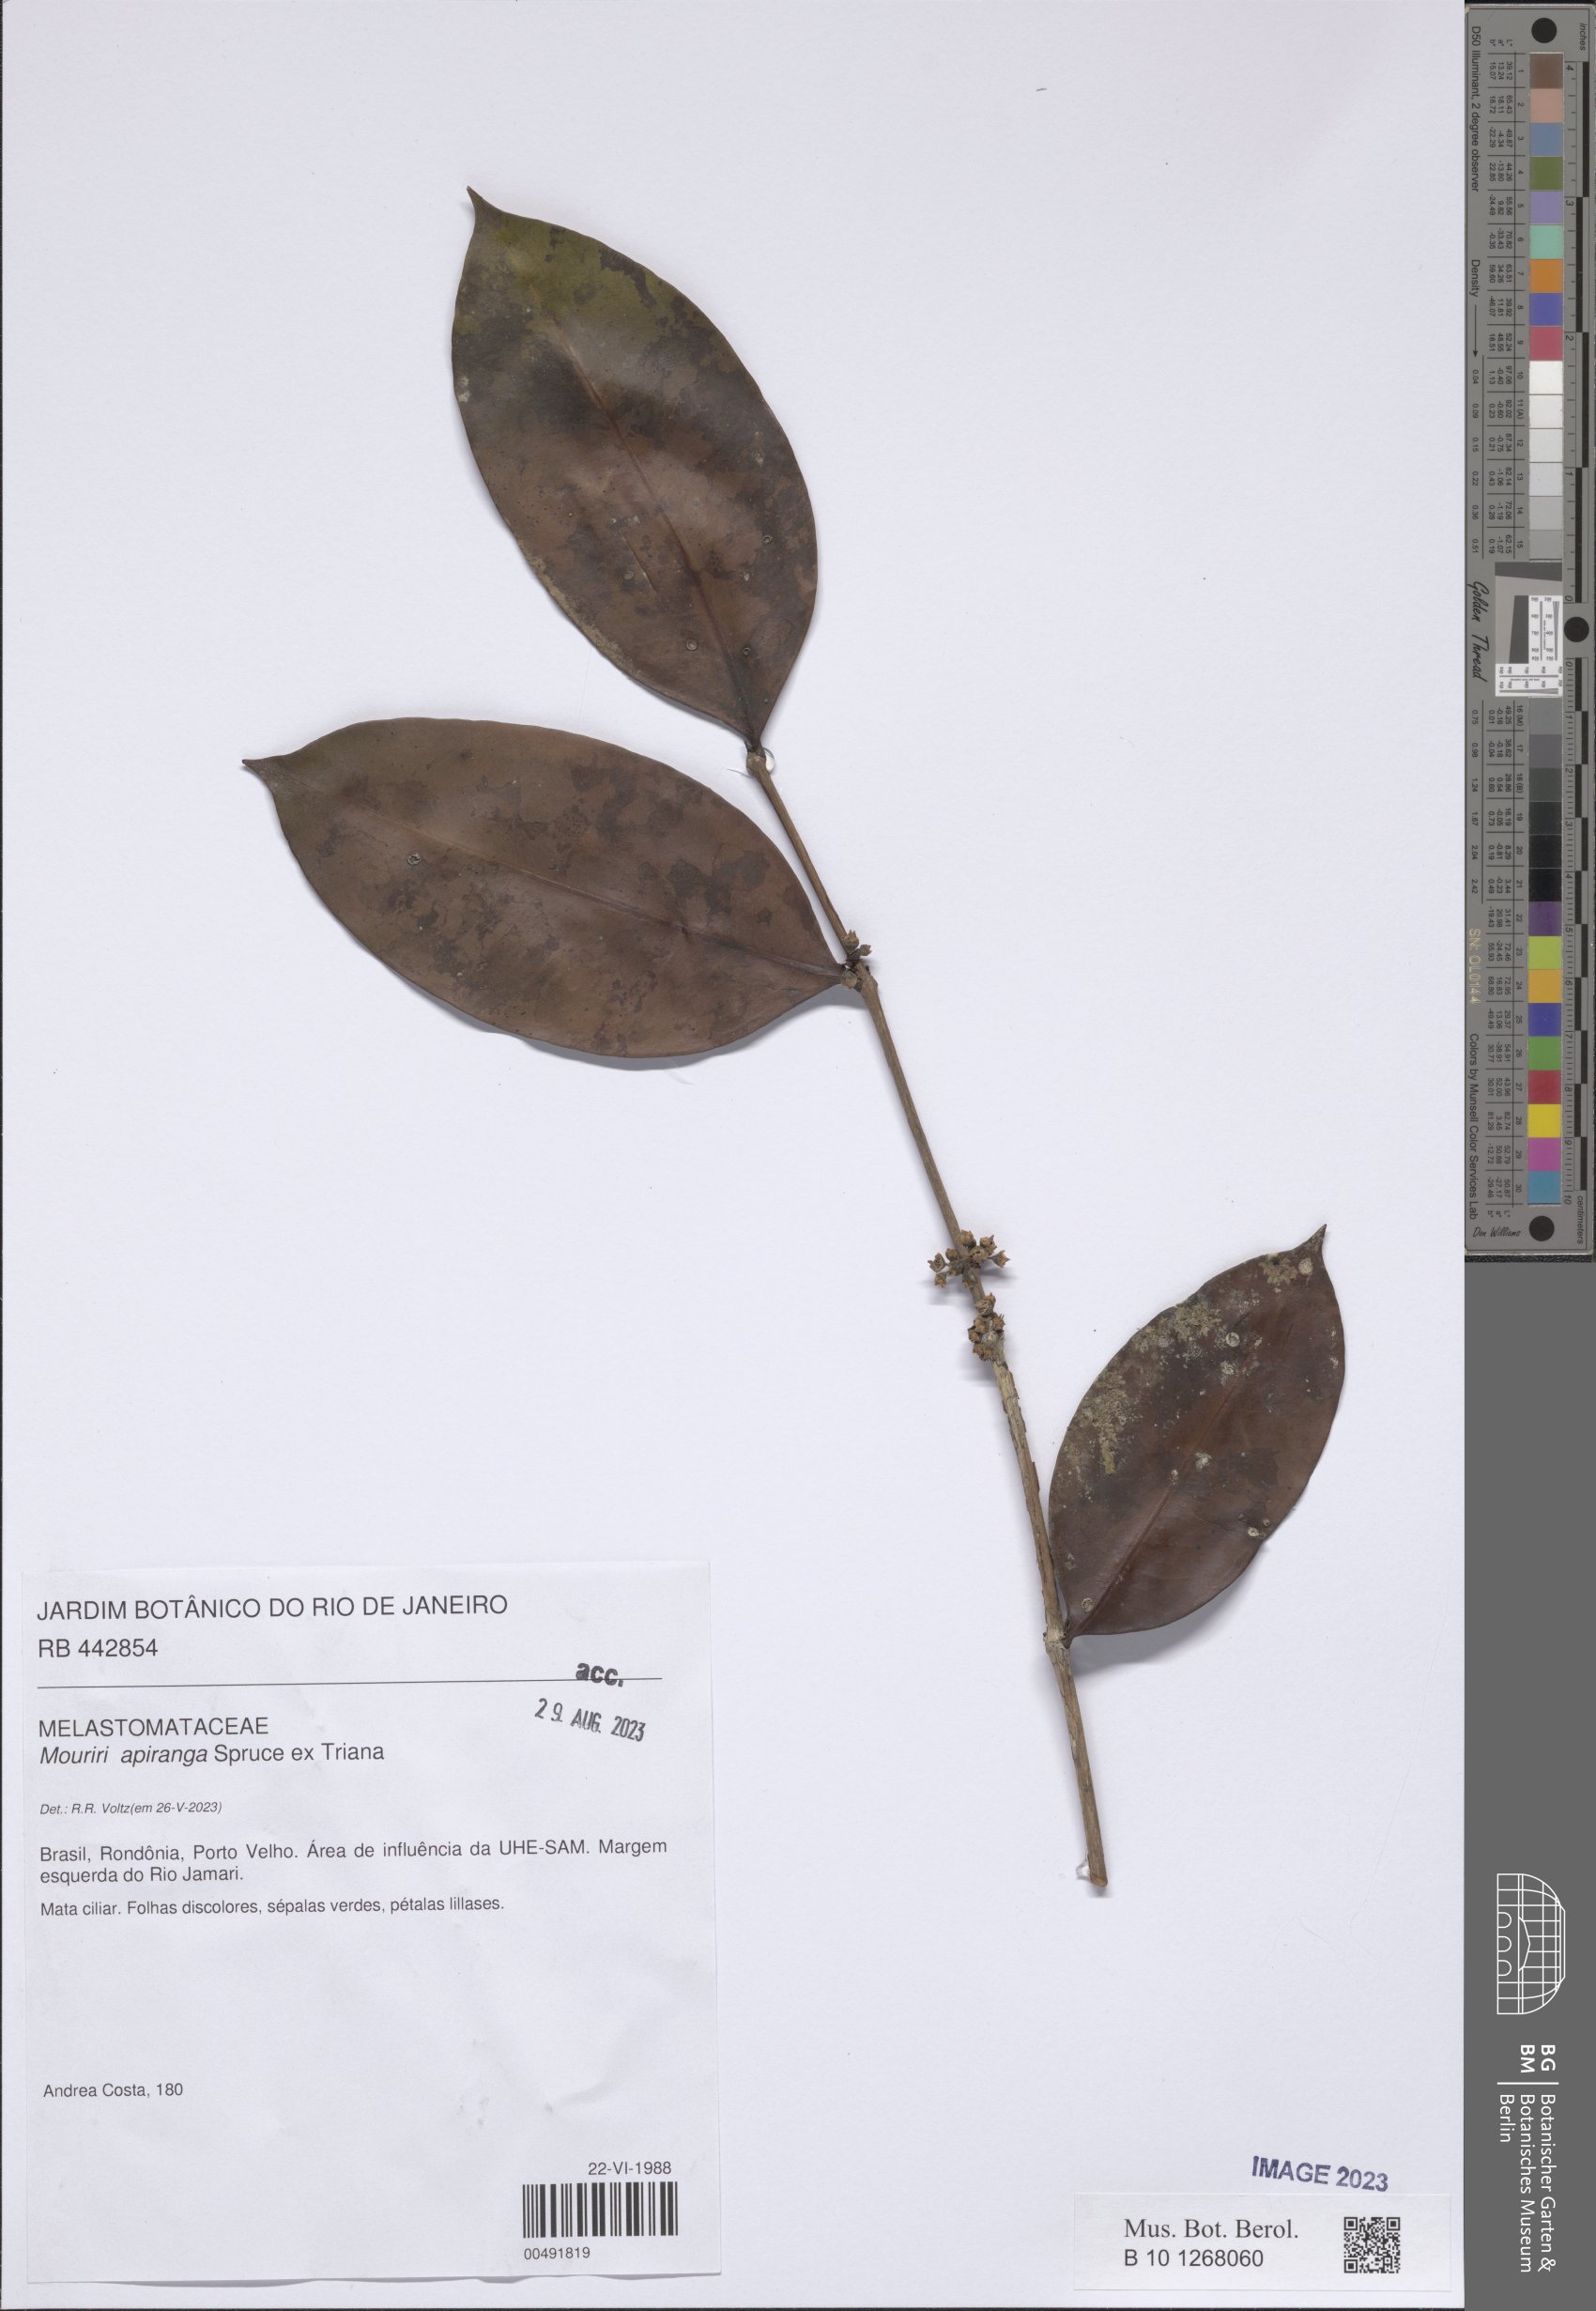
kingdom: Plantae
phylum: Tracheophyta
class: Magnoliopsida
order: Myrtales
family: Melastomataceae
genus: Mouriri
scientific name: Mouriri apiranga
